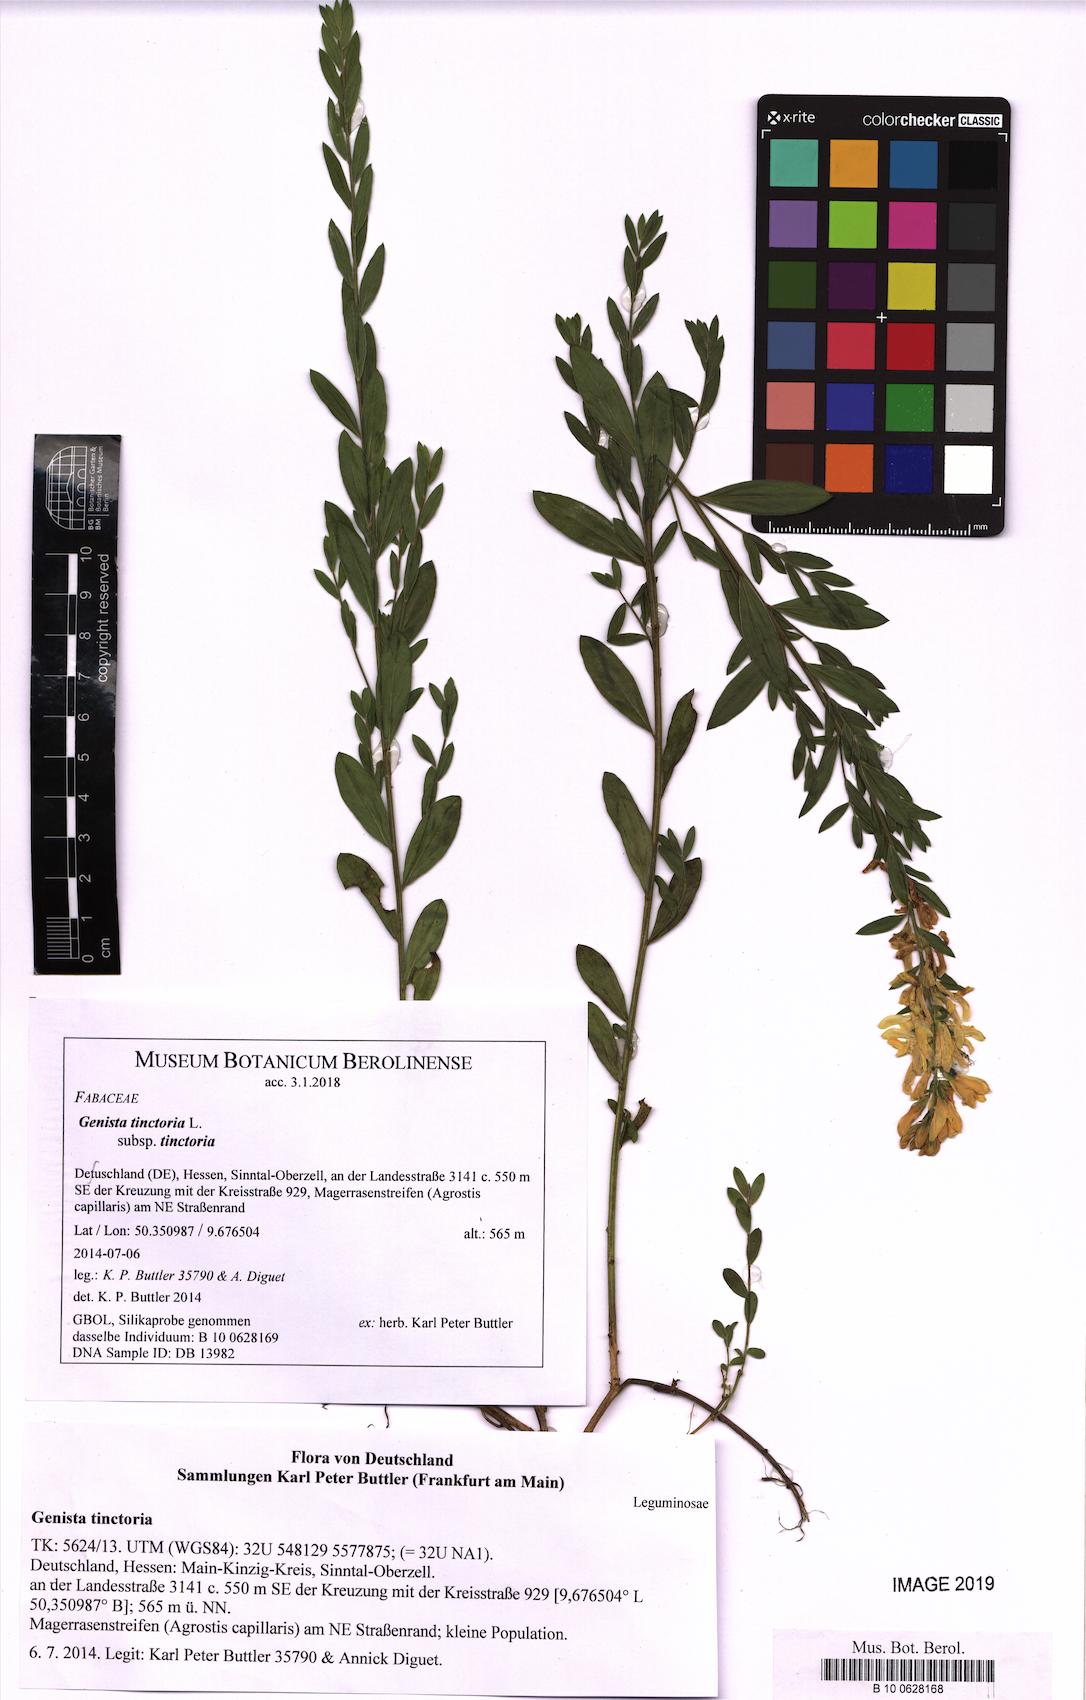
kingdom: Plantae
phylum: Tracheophyta
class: Magnoliopsida
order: Fabales
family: Fabaceae
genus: Genista
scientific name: Genista tinctoria
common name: Dyer's greenweed
